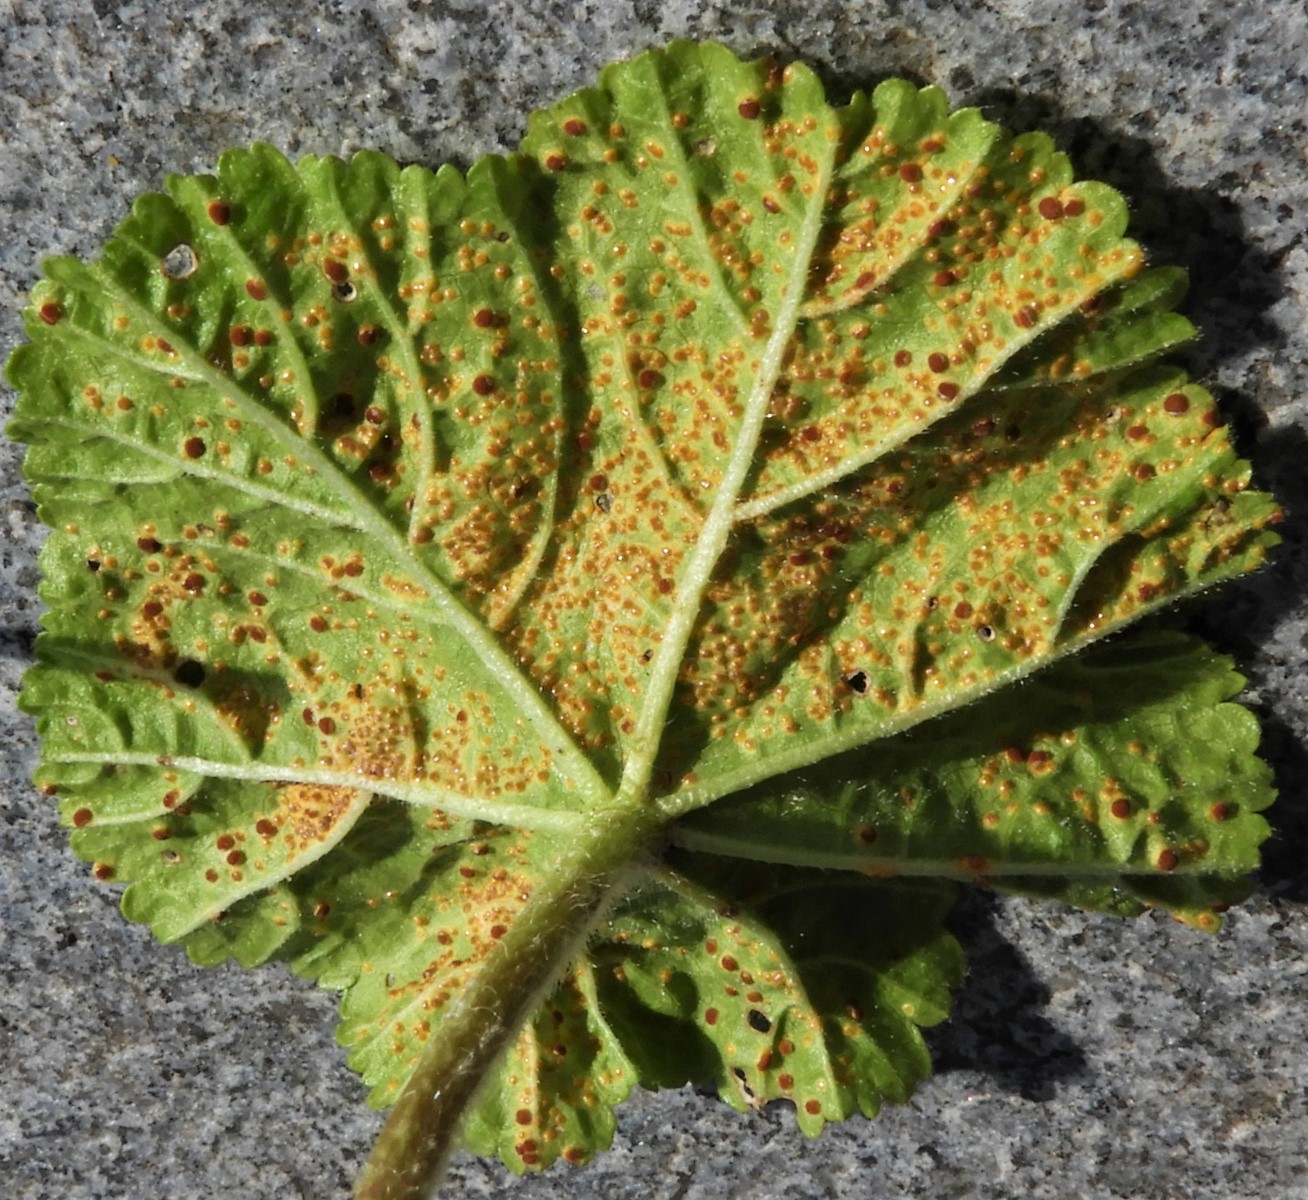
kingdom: Fungi
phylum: Basidiomycota
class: Pucciniomycetes
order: Pucciniales
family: Pucciniaceae
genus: Puccinia
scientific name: Puccinia malvacearum
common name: stokrose-tvecellerust
